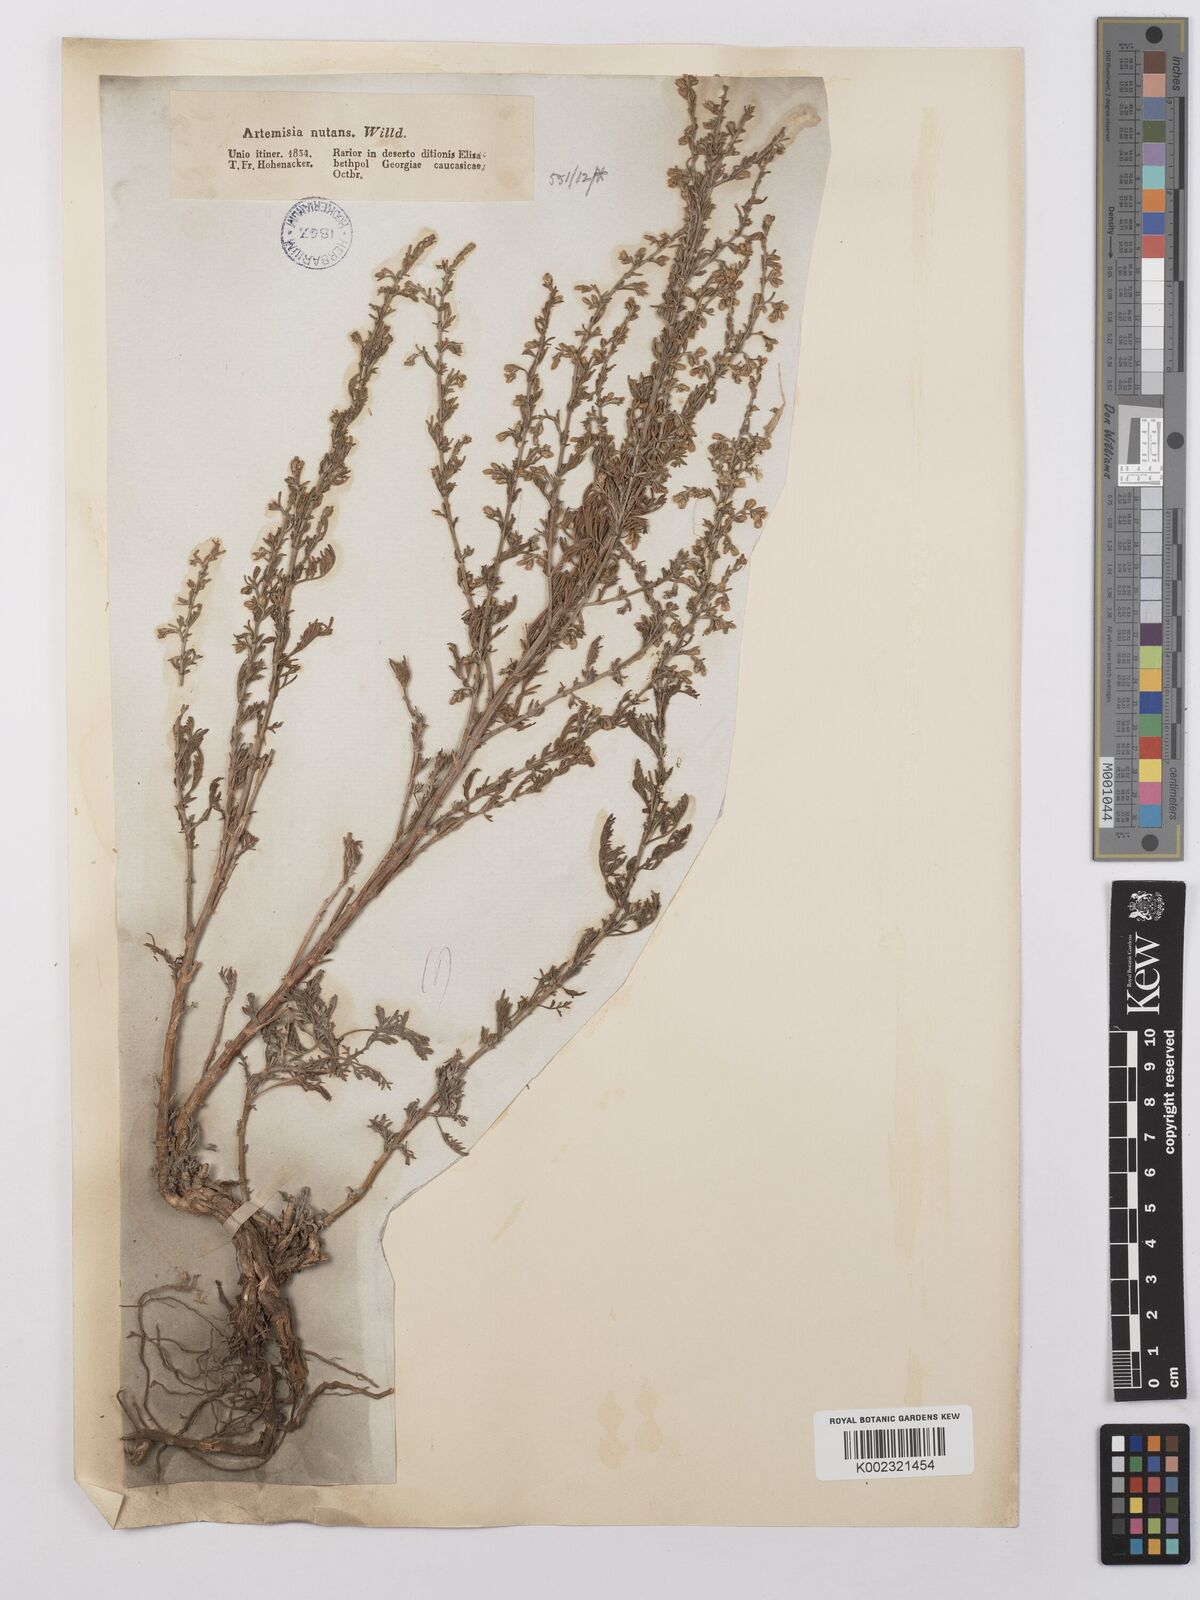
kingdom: Plantae
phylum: Tracheophyta
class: Magnoliopsida
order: Asterales
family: Asteraceae
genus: Artemisia
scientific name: Artemisia nutans
